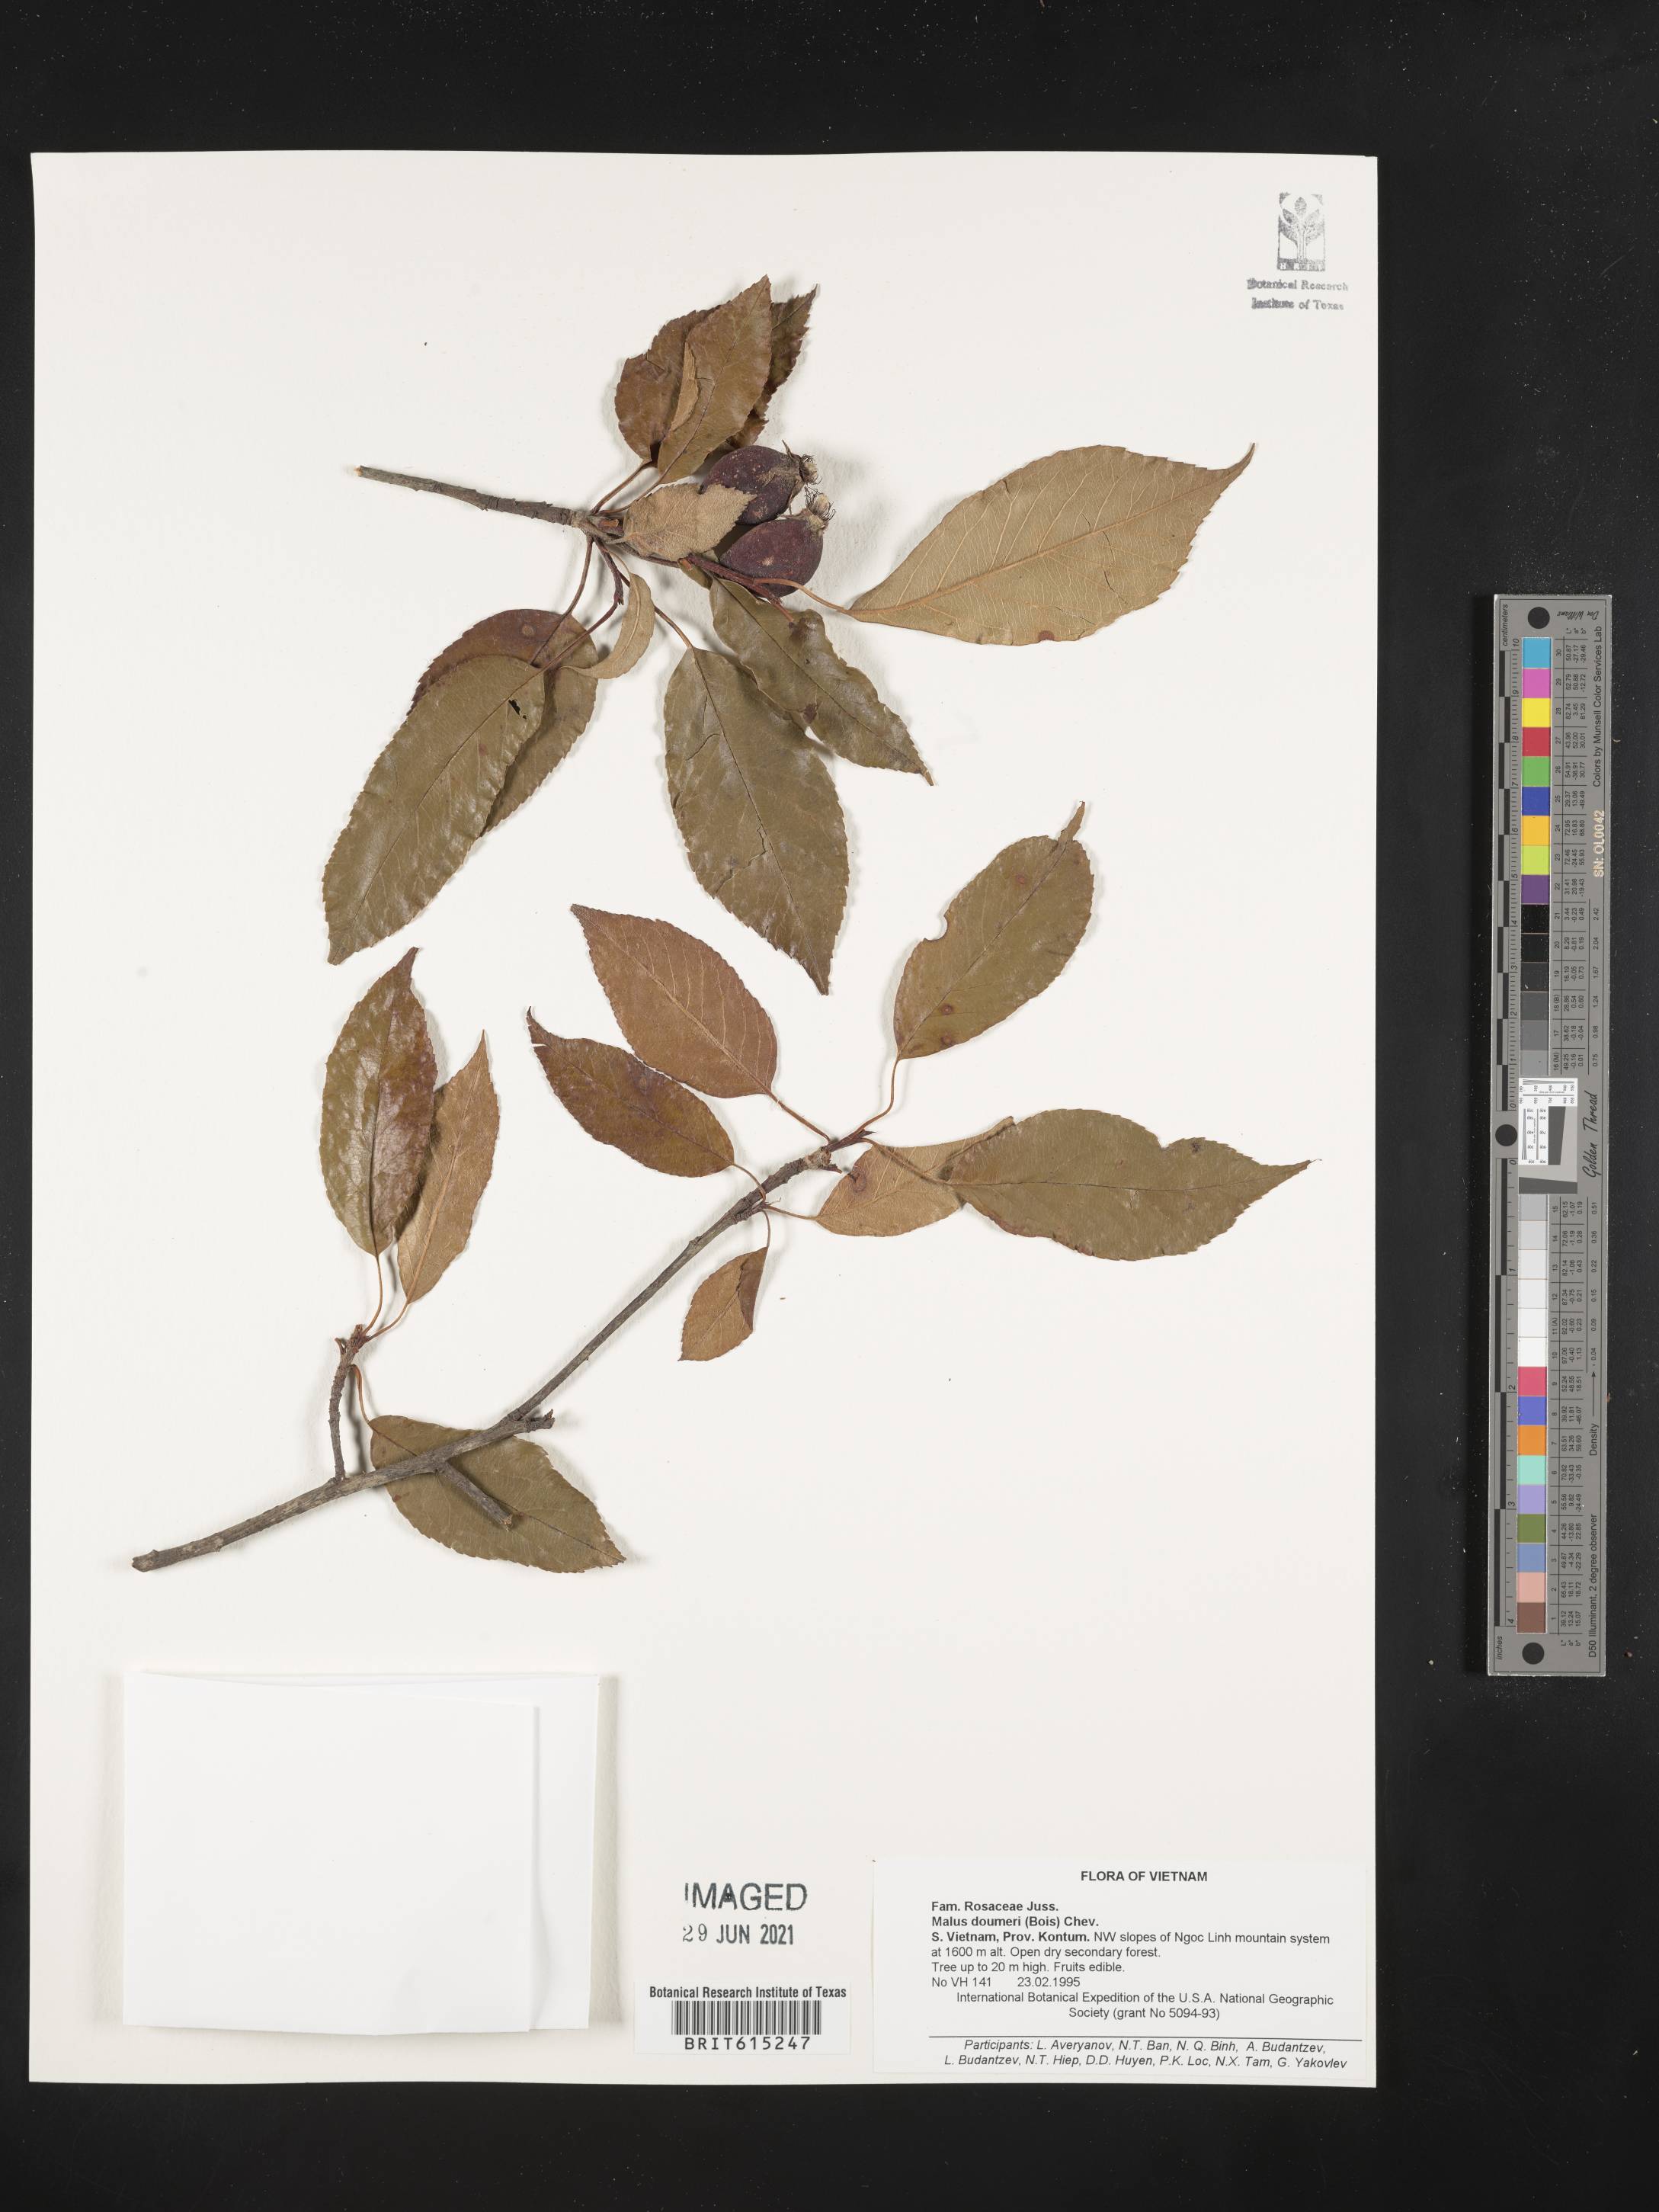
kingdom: Plantae
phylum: Tracheophyta
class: Magnoliopsida
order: Rosales
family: Rosaceae
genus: Malus
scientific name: Malus doumeri
